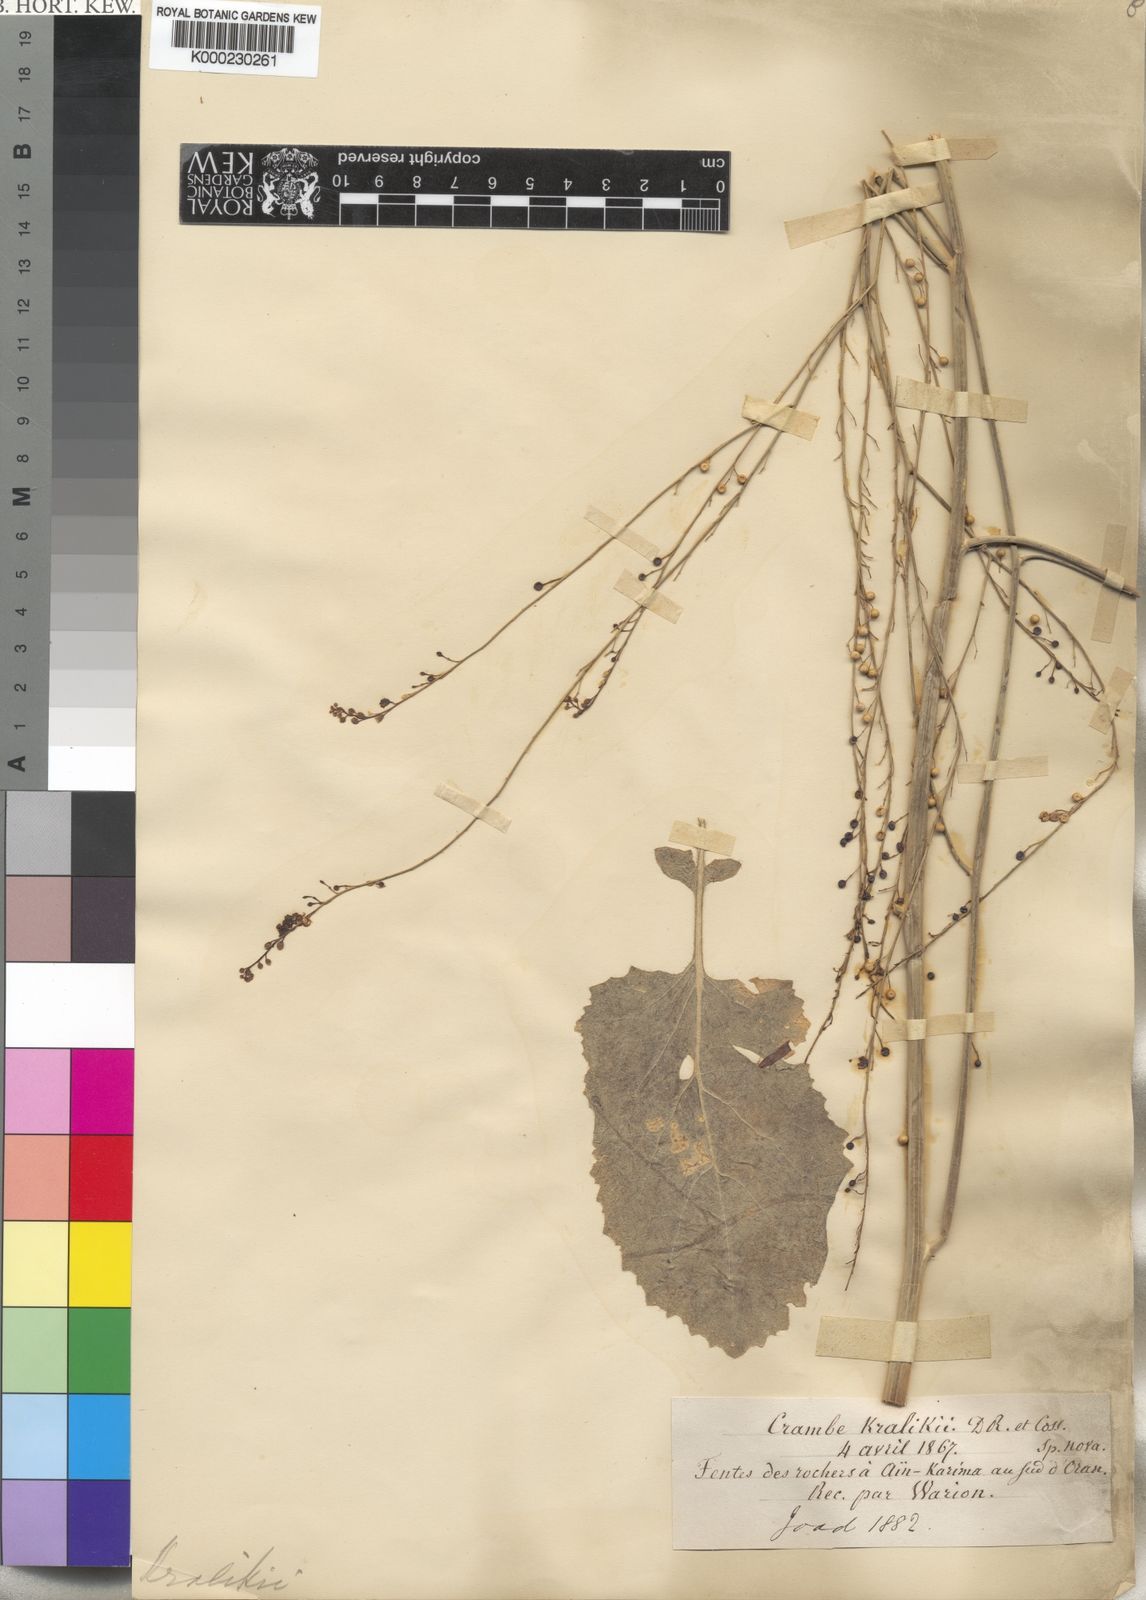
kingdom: Plantae
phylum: Tracheophyta
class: Magnoliopsida
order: Brassicales
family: Brassicaceae
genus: Crambe
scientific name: Crambe kralikii
